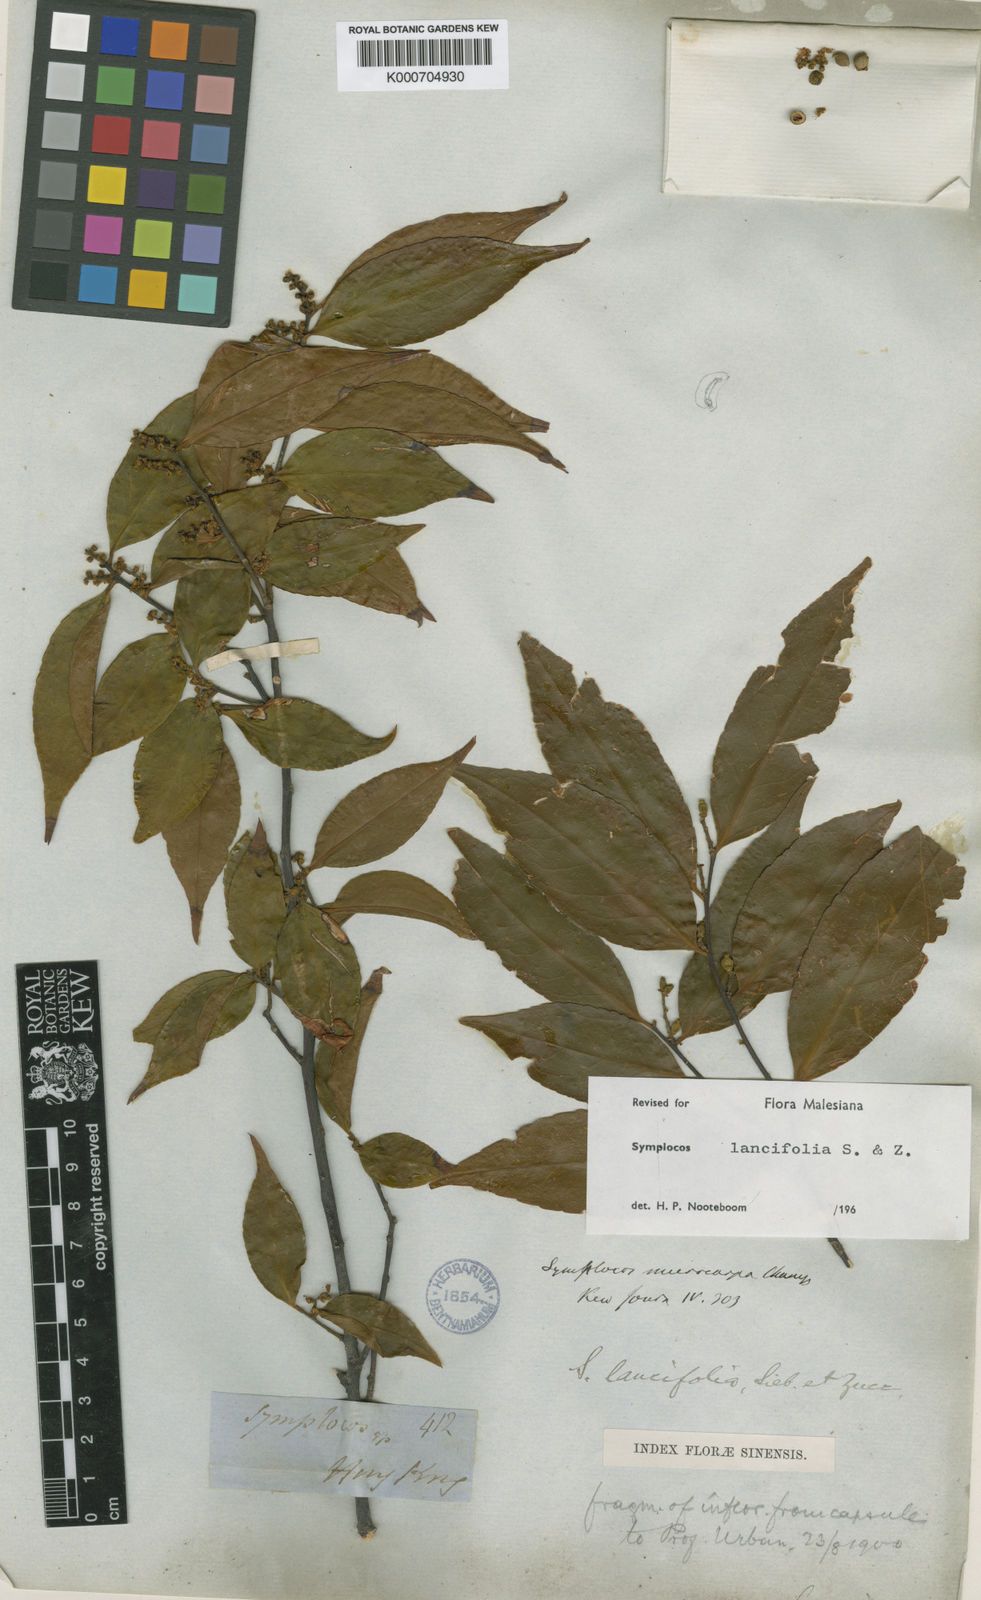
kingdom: Plantae
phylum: Tracheophyta
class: Magnoliopsida
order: Ericales
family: Symplocaceae
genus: Symplocos
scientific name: Symplocos lancifolia
